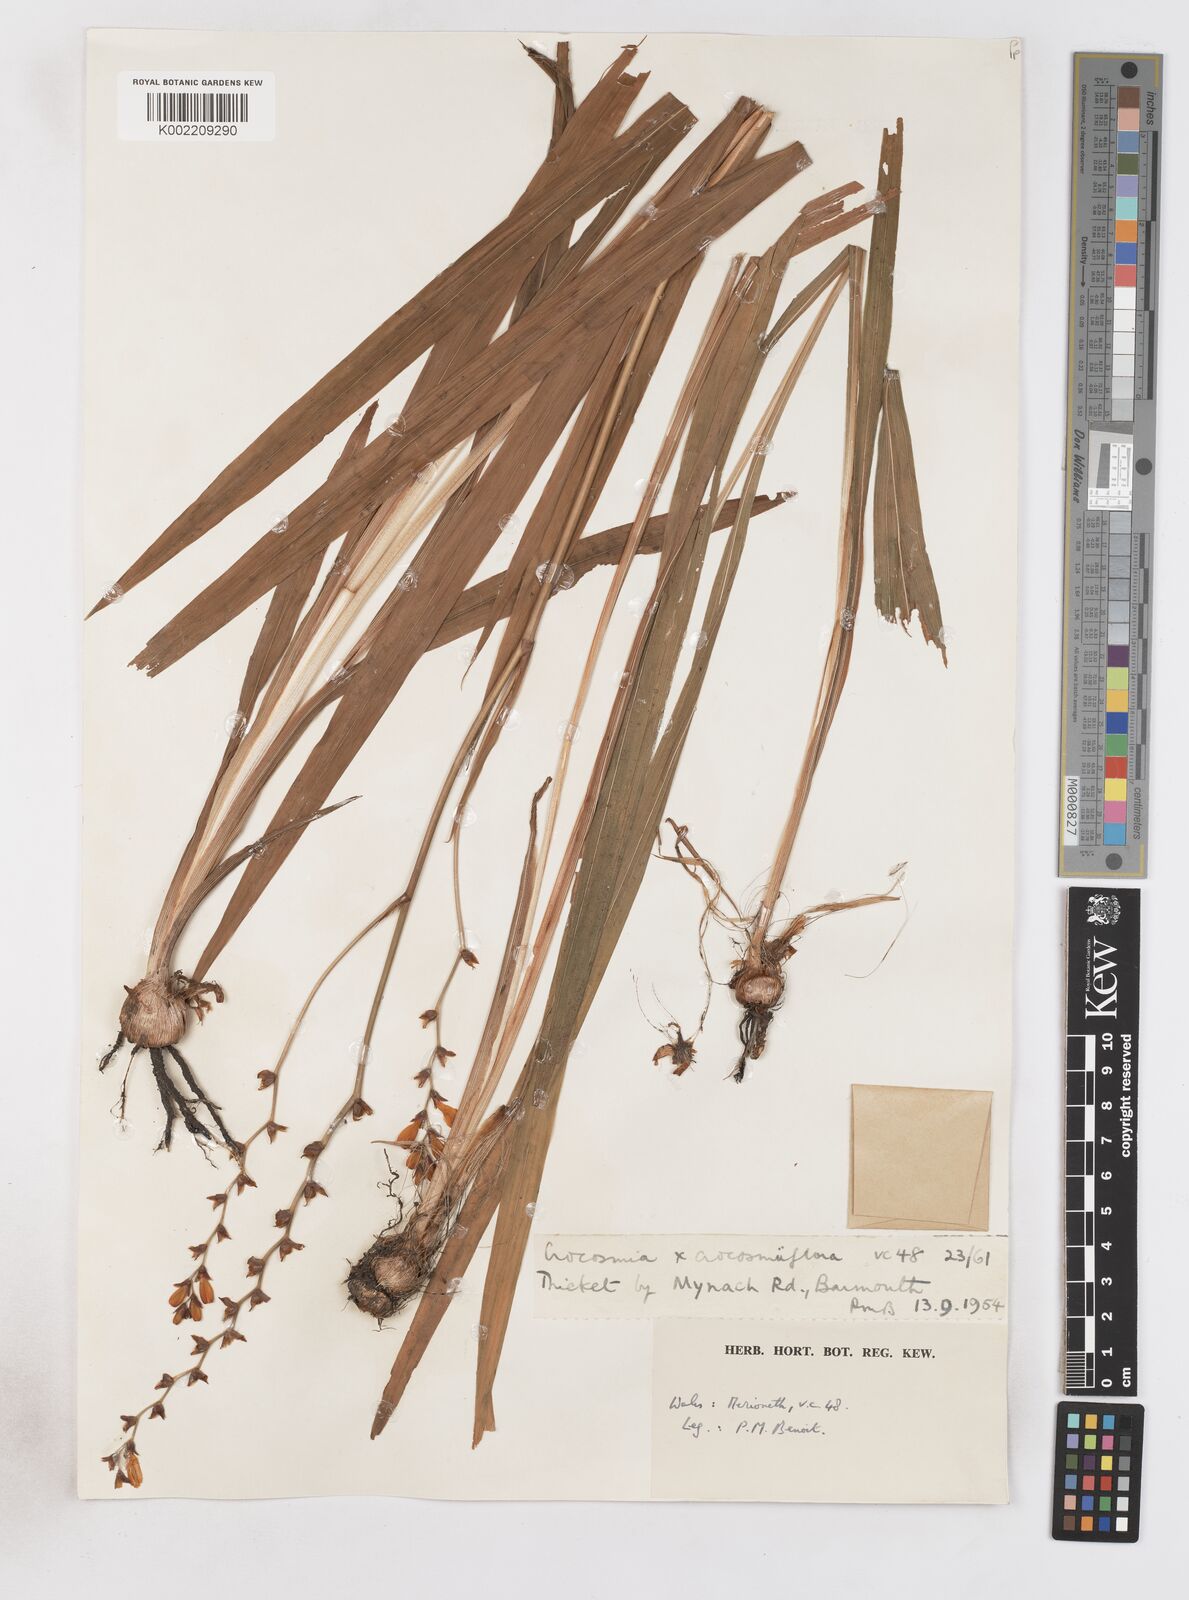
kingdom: Plantae
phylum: Tracheophyta
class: Liliopsida
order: Asparagales
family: Iridaceae
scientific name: Iridaceae
